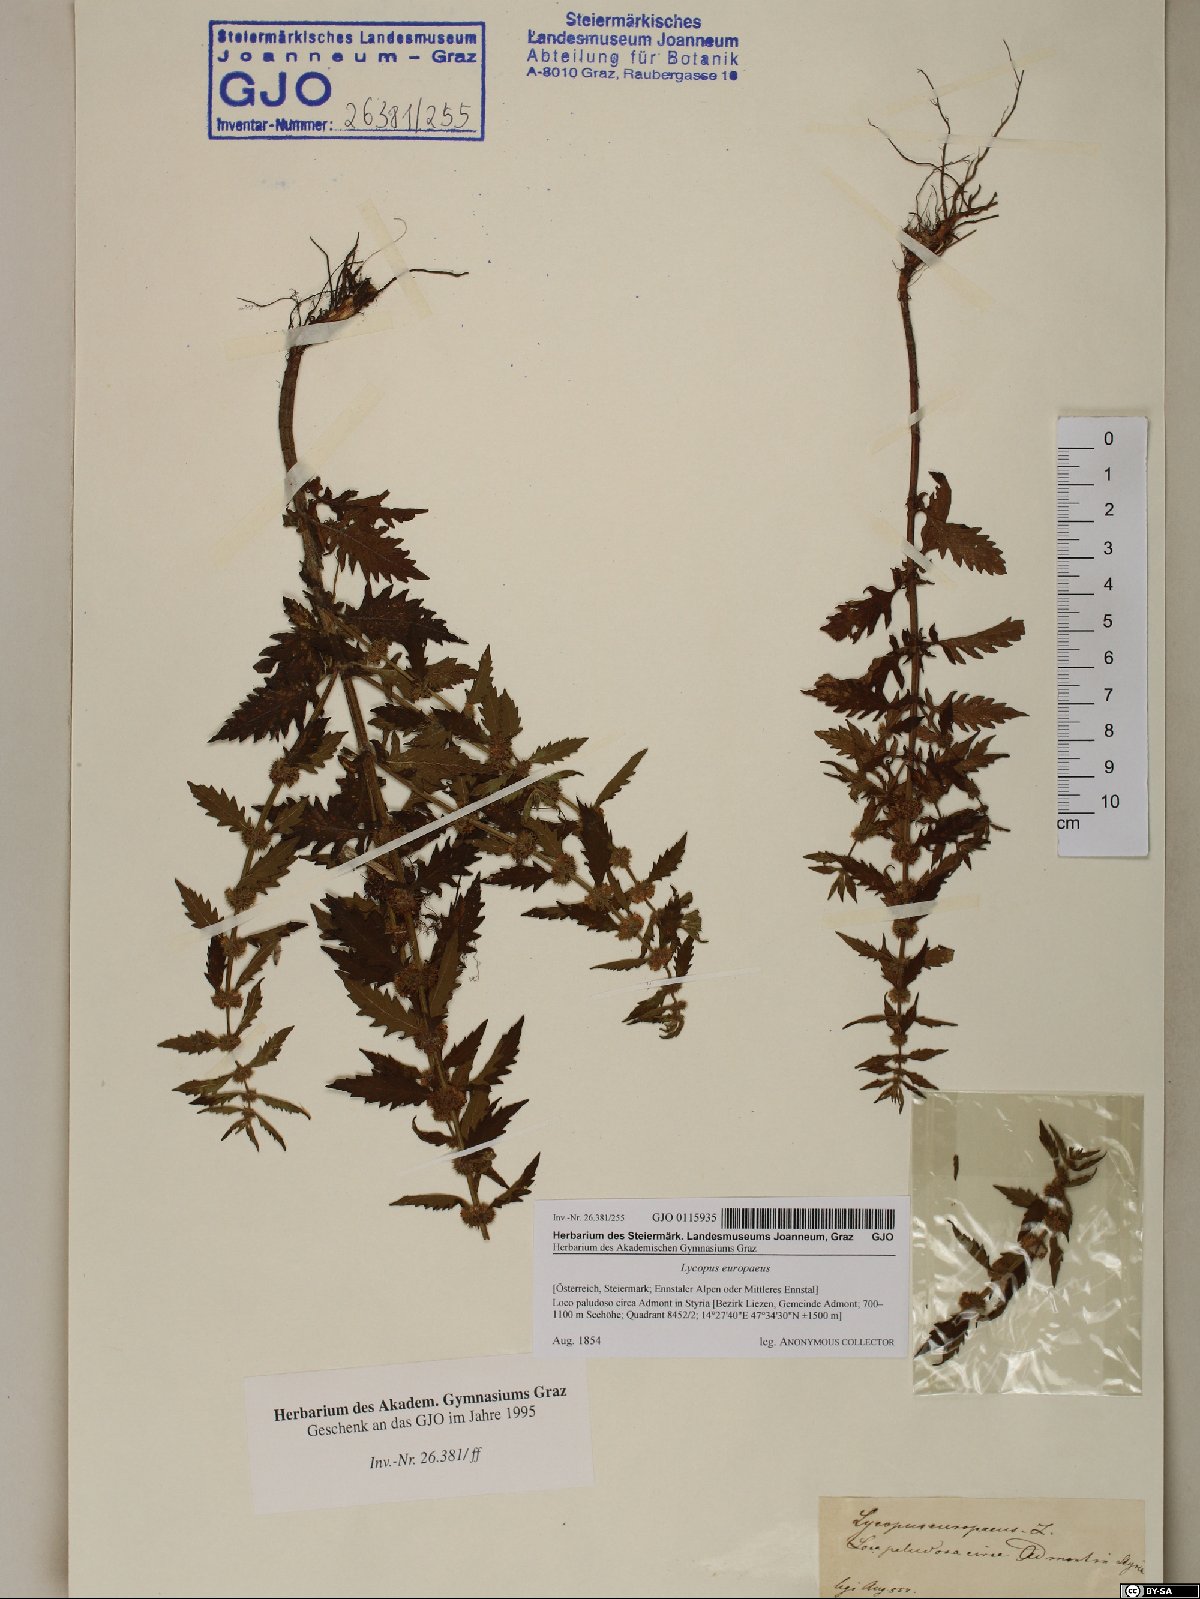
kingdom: Plantae
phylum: Tracheophyta
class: Magnoliopsida
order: Lamiales
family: Lamiaceae
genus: Lycopus
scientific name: Lycopus europaeus
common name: European bugleweed
